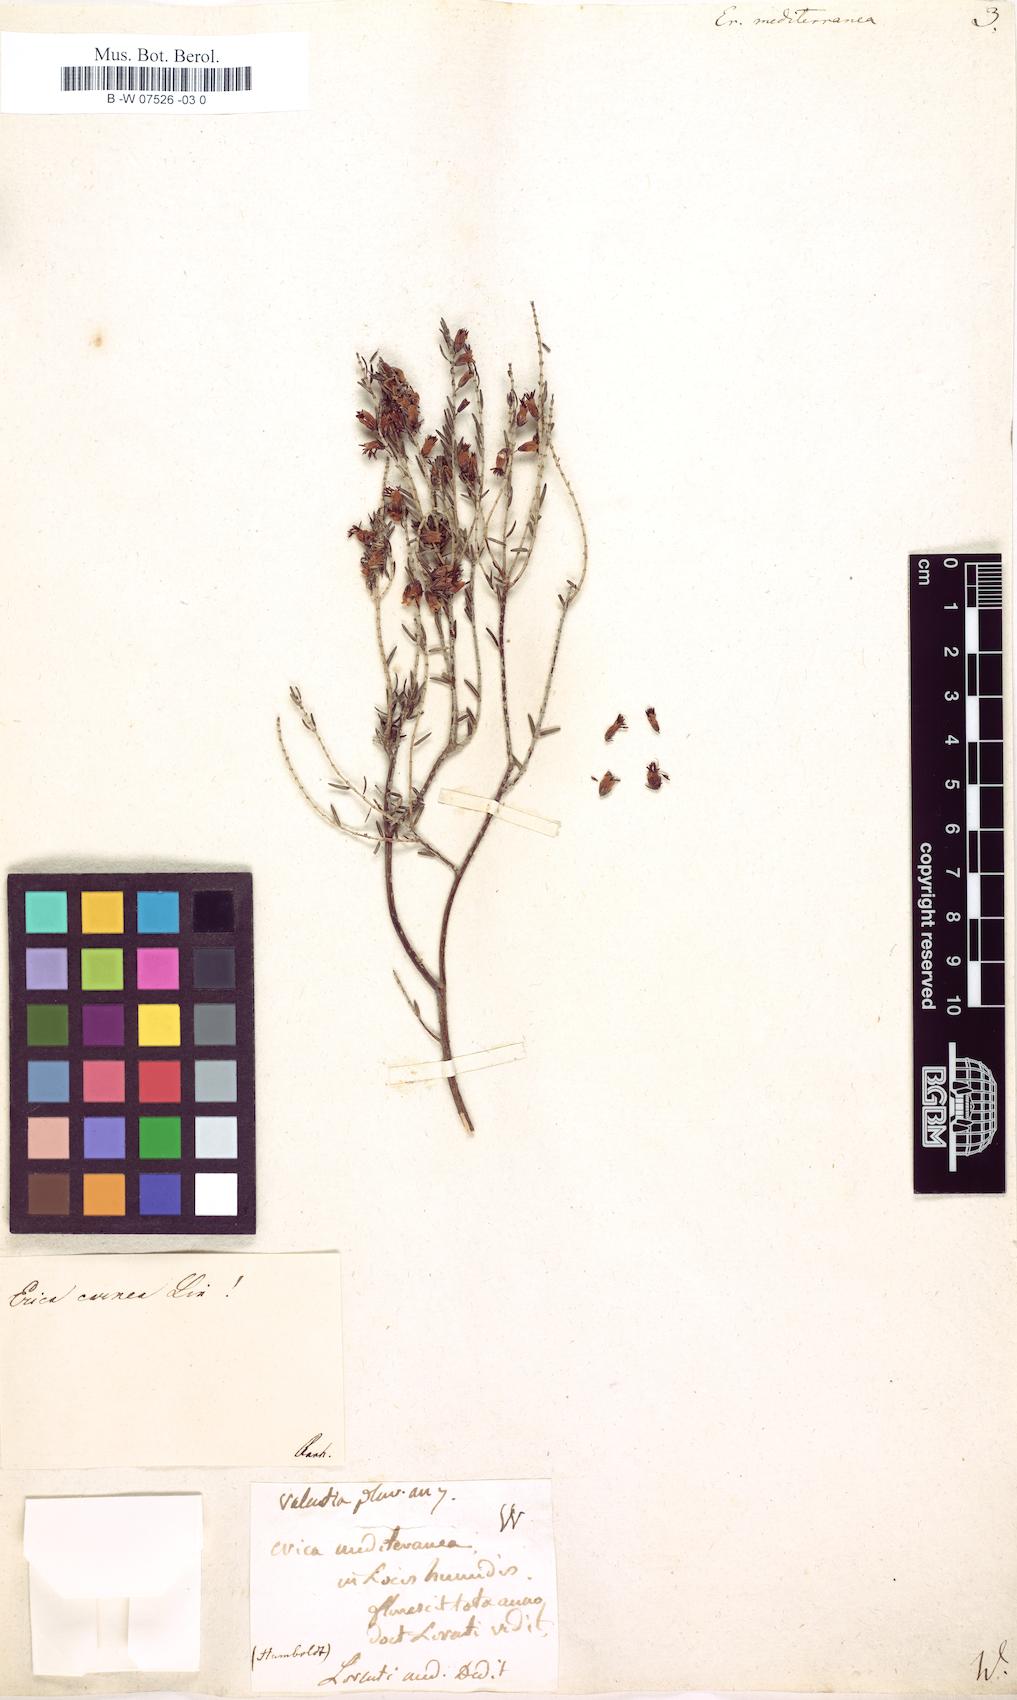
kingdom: Plantae
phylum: Tracheophyta
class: Magnoliopsida
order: Ericales
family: Ericaceae
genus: Erica
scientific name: Erica
